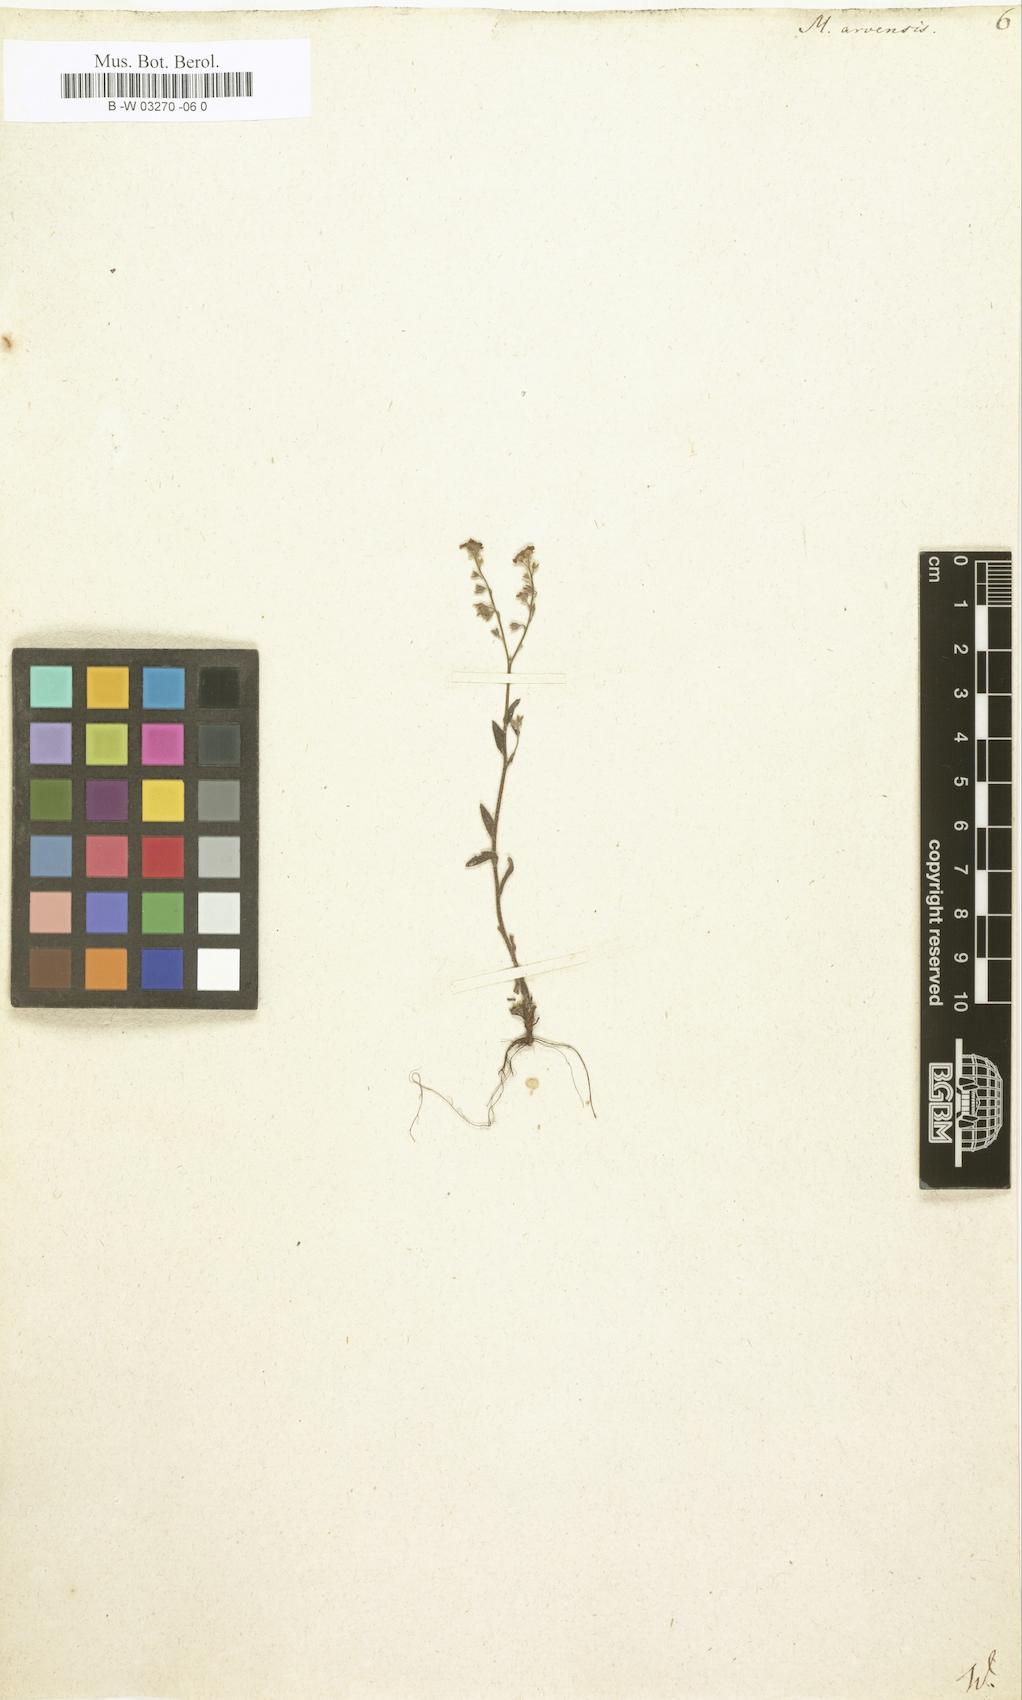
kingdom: Plantae
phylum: Tracheophyta
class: Magnoliopsida
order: Boraginales
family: Boraginaceae
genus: Myosotis
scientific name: Myosotis arvensis
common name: Field forget-me-not
